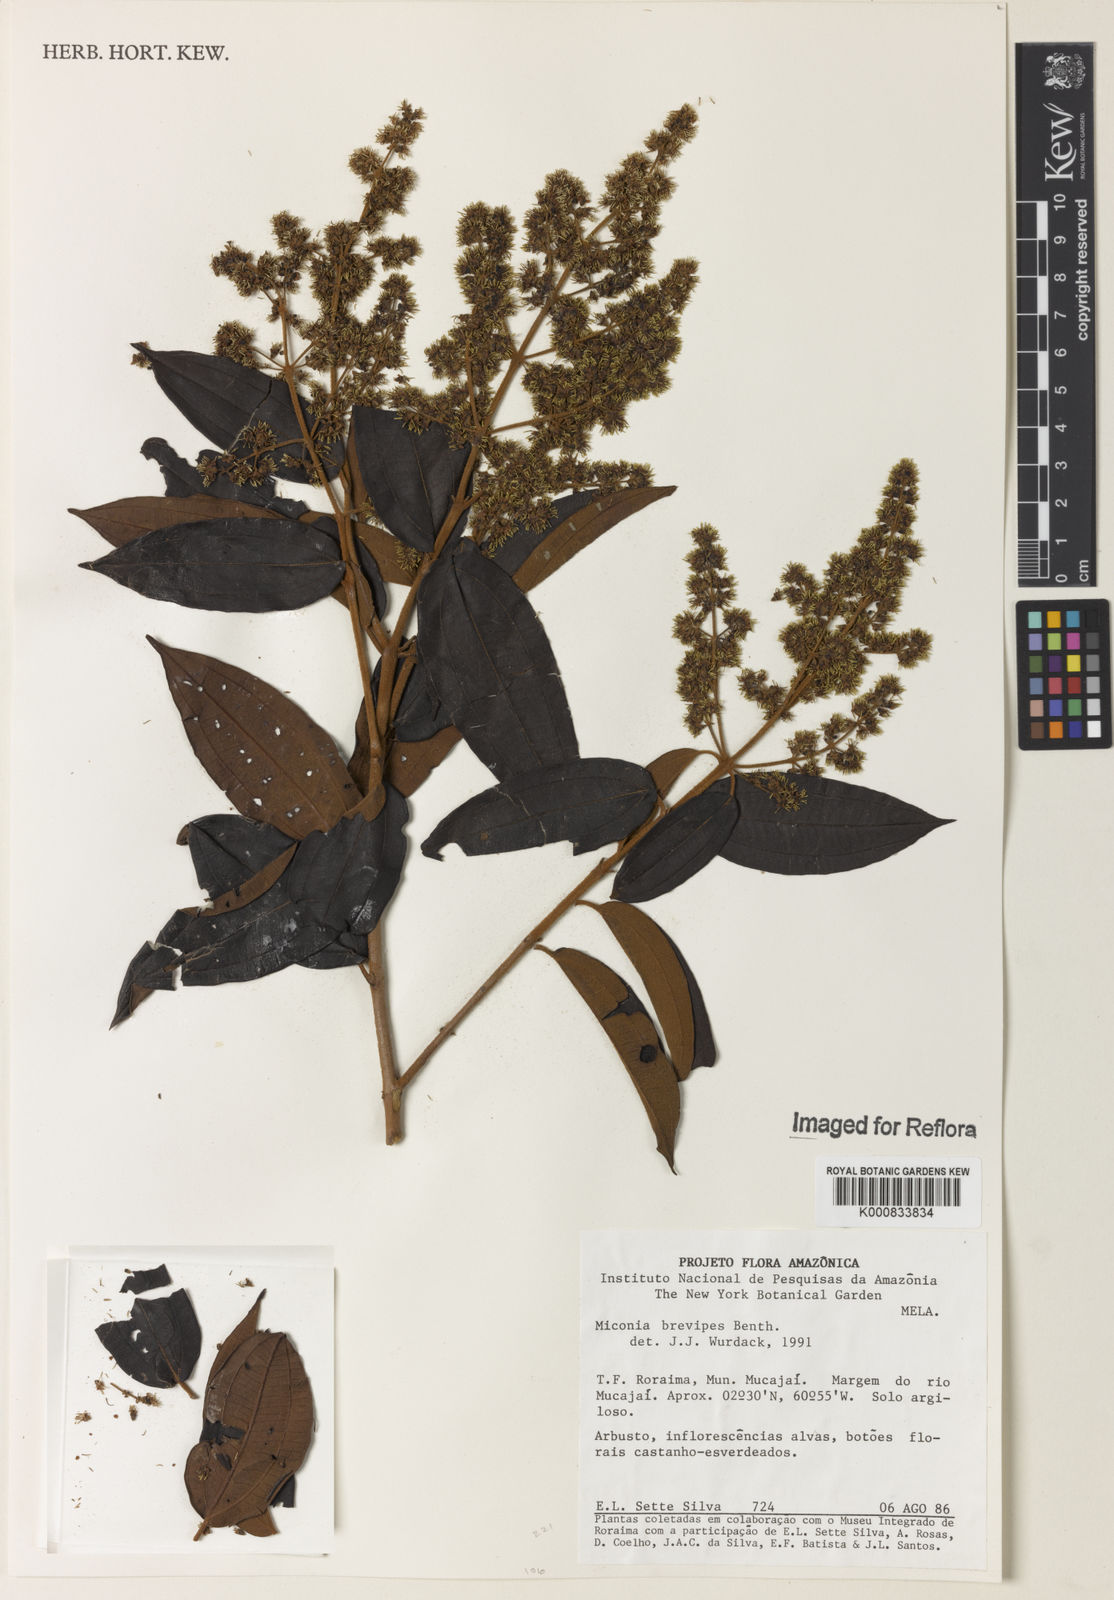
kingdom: Plantae
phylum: Tracheophyta
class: Magnoliopsida
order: Myrtales
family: Melastomataceae
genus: Miconia
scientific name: Miconia brevipes
